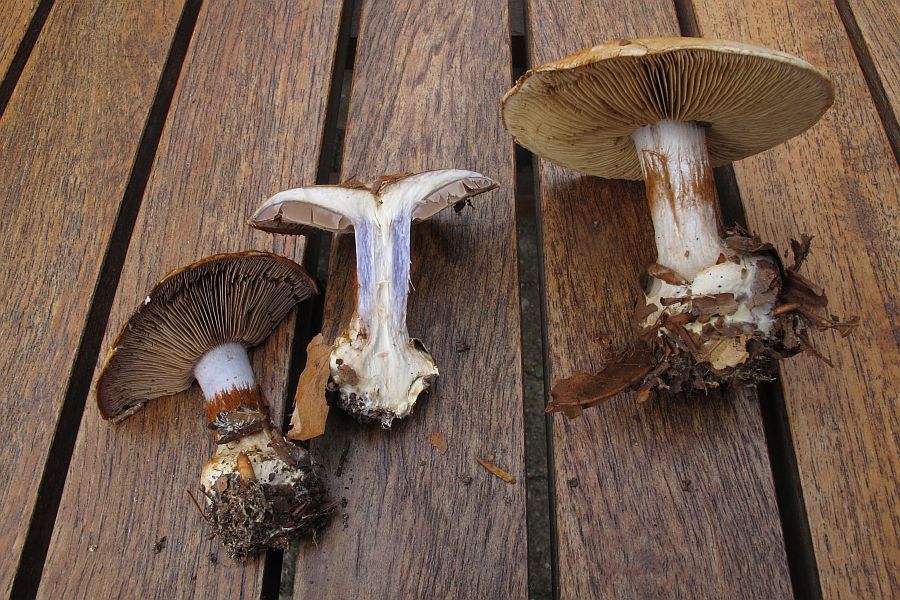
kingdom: Fungi
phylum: Basidiomycota
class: Agaricomycetes
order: Agaricales
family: Cortinariaceae
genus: Cortinarius
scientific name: Cortinarius anserinus
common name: bøge-slørhat
